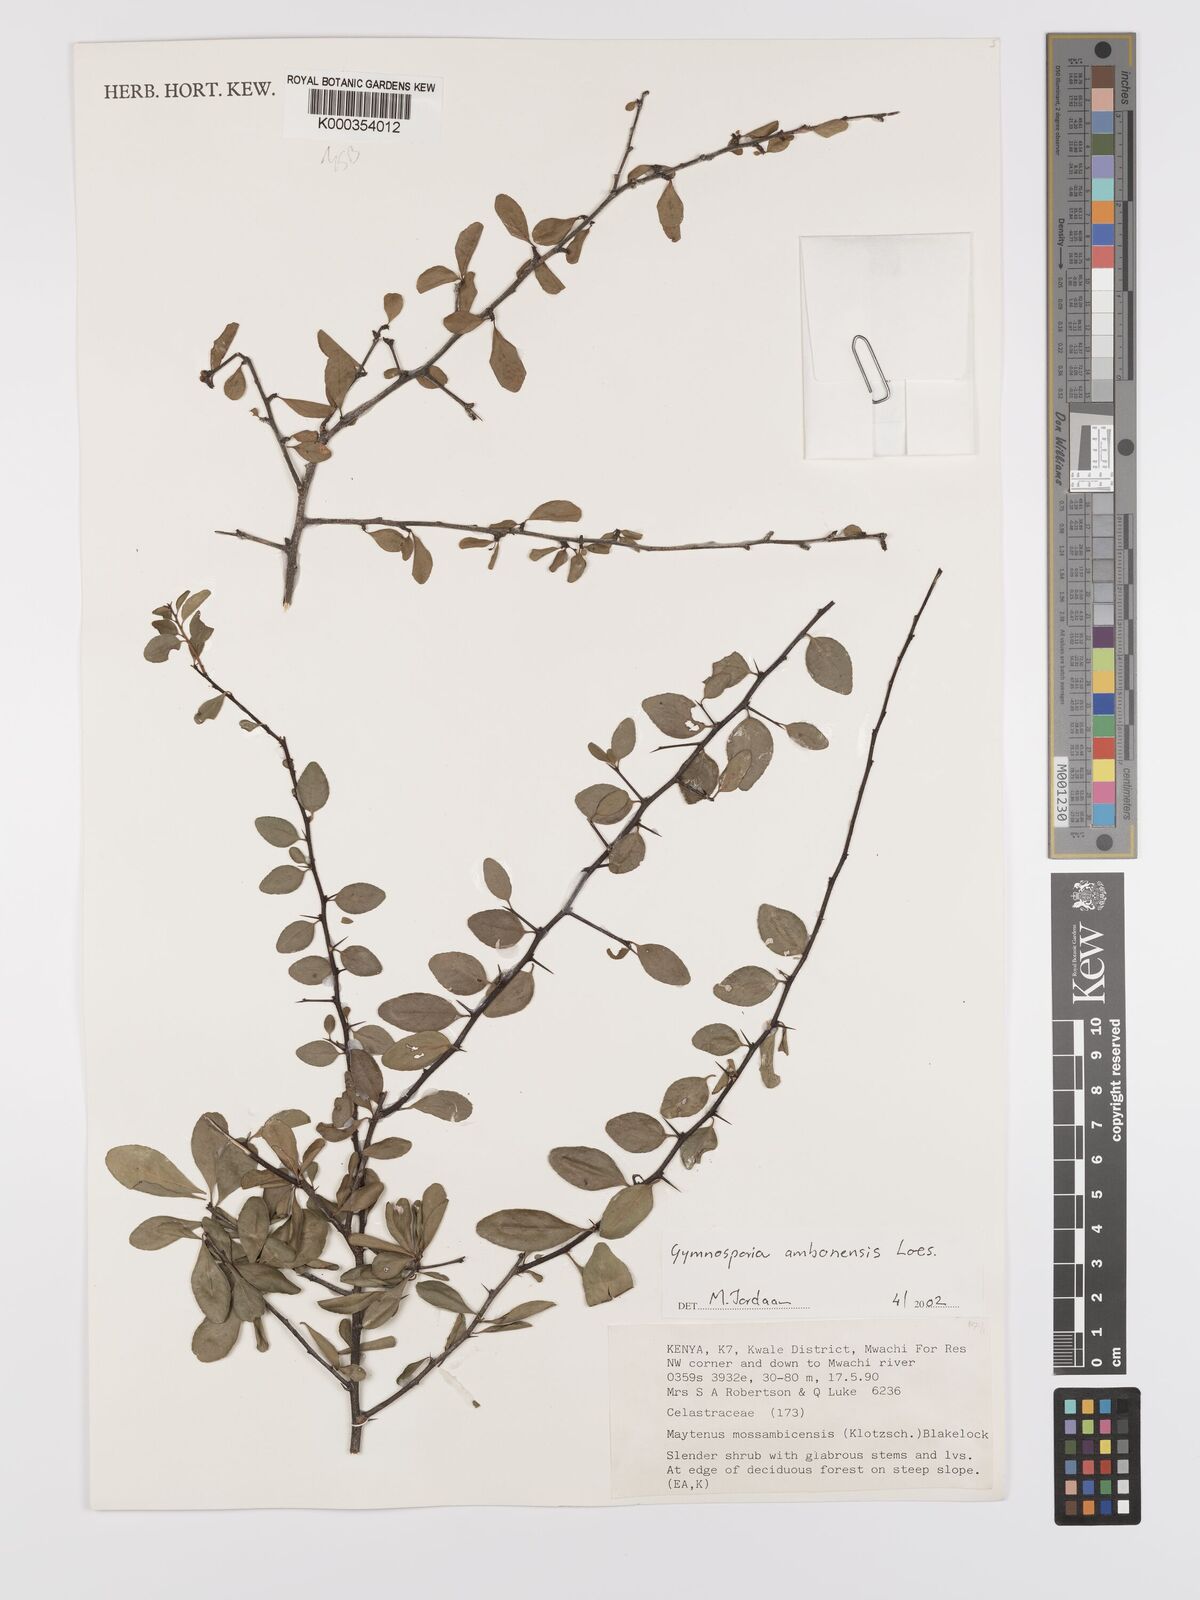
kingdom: Plantae
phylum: Tracheophyta
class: Magnoliopsida
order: Celastrales
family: Celastraceae
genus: Gymnosporia
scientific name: Gymnosporia
